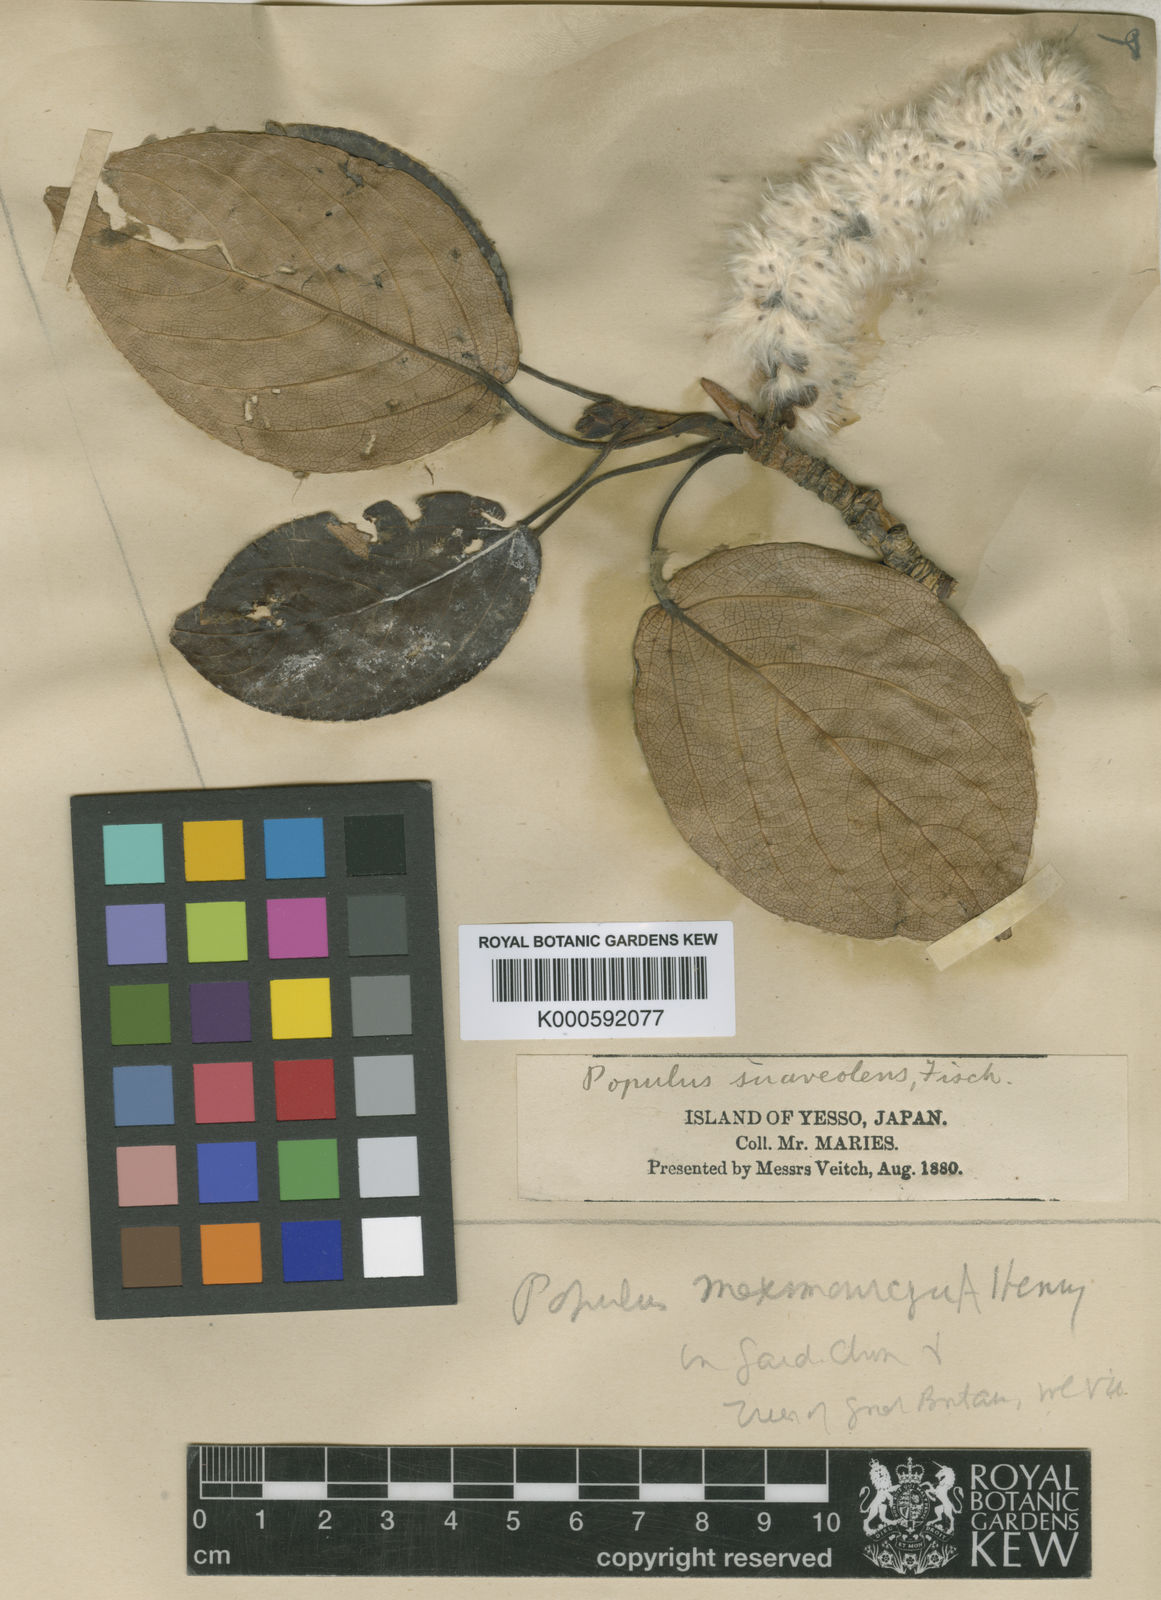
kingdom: Plantae
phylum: Tracheophyta
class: Magnoliopsida
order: Malpighiales
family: Salicaceae
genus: Populus
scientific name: Populus suaveolens
